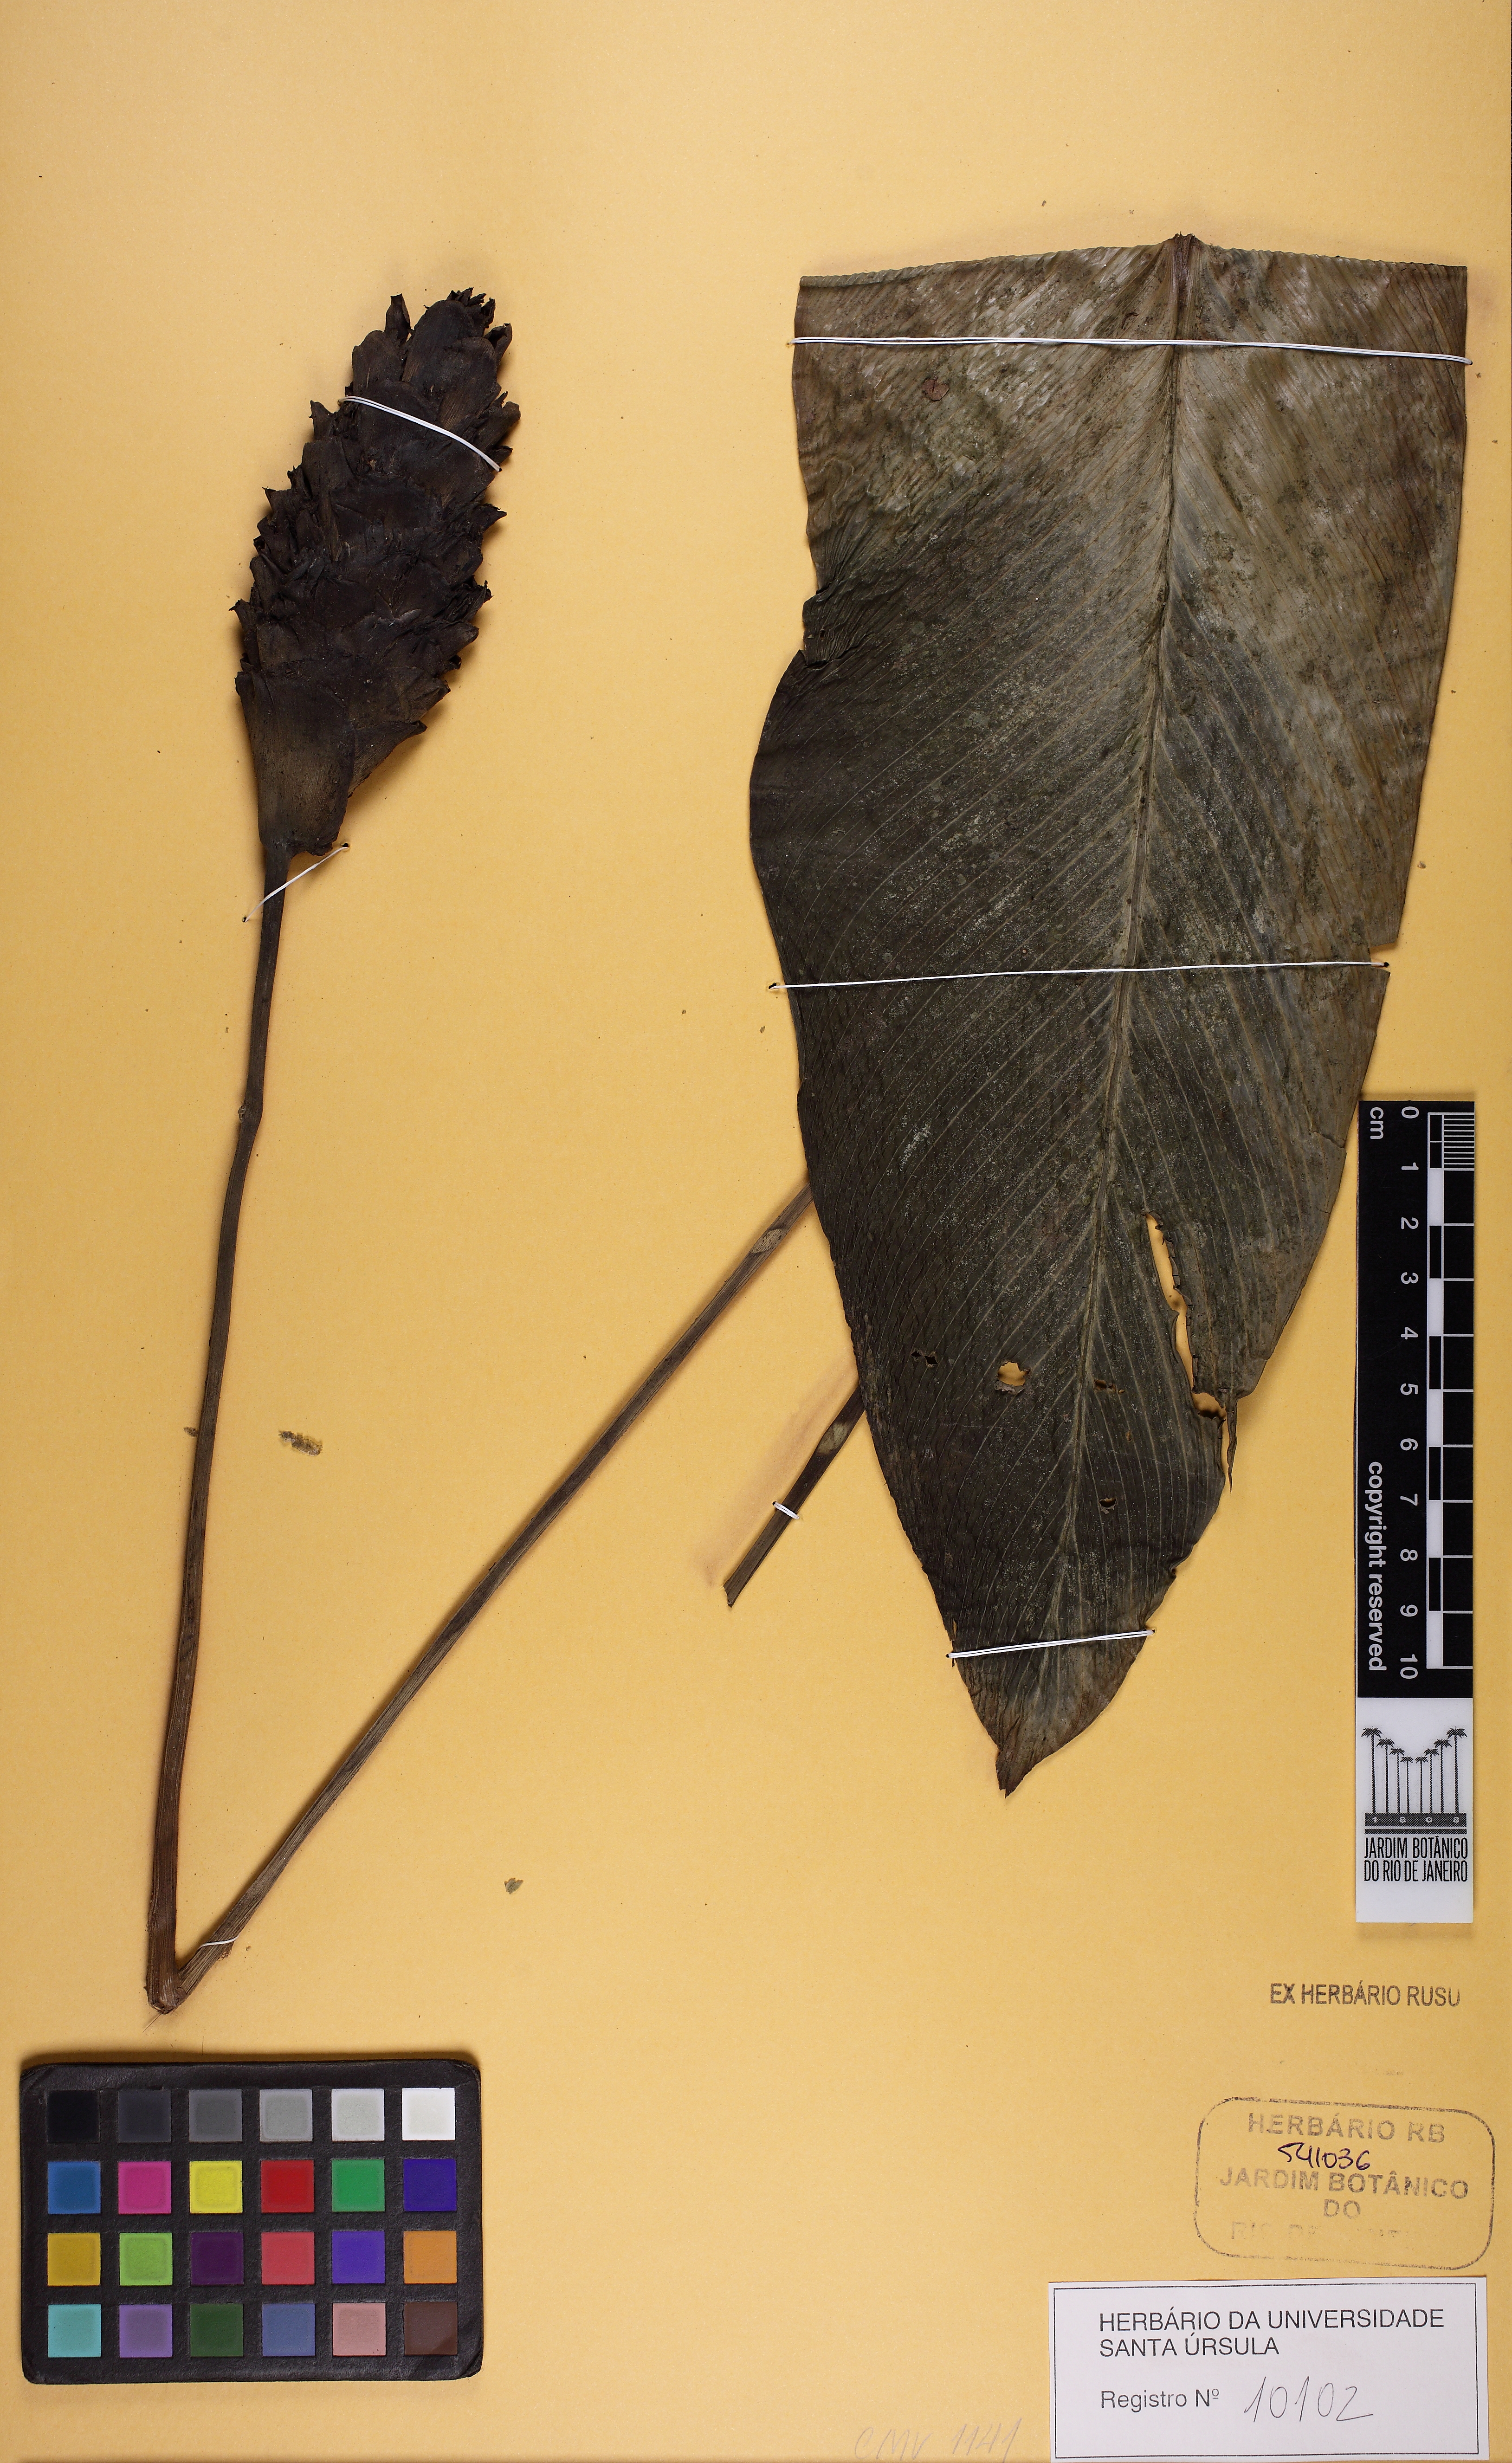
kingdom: Plantae
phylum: Tracheophyta
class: Liliopsida
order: Zingiberales
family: Marantaceae
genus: Calathea
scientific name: Calathea
